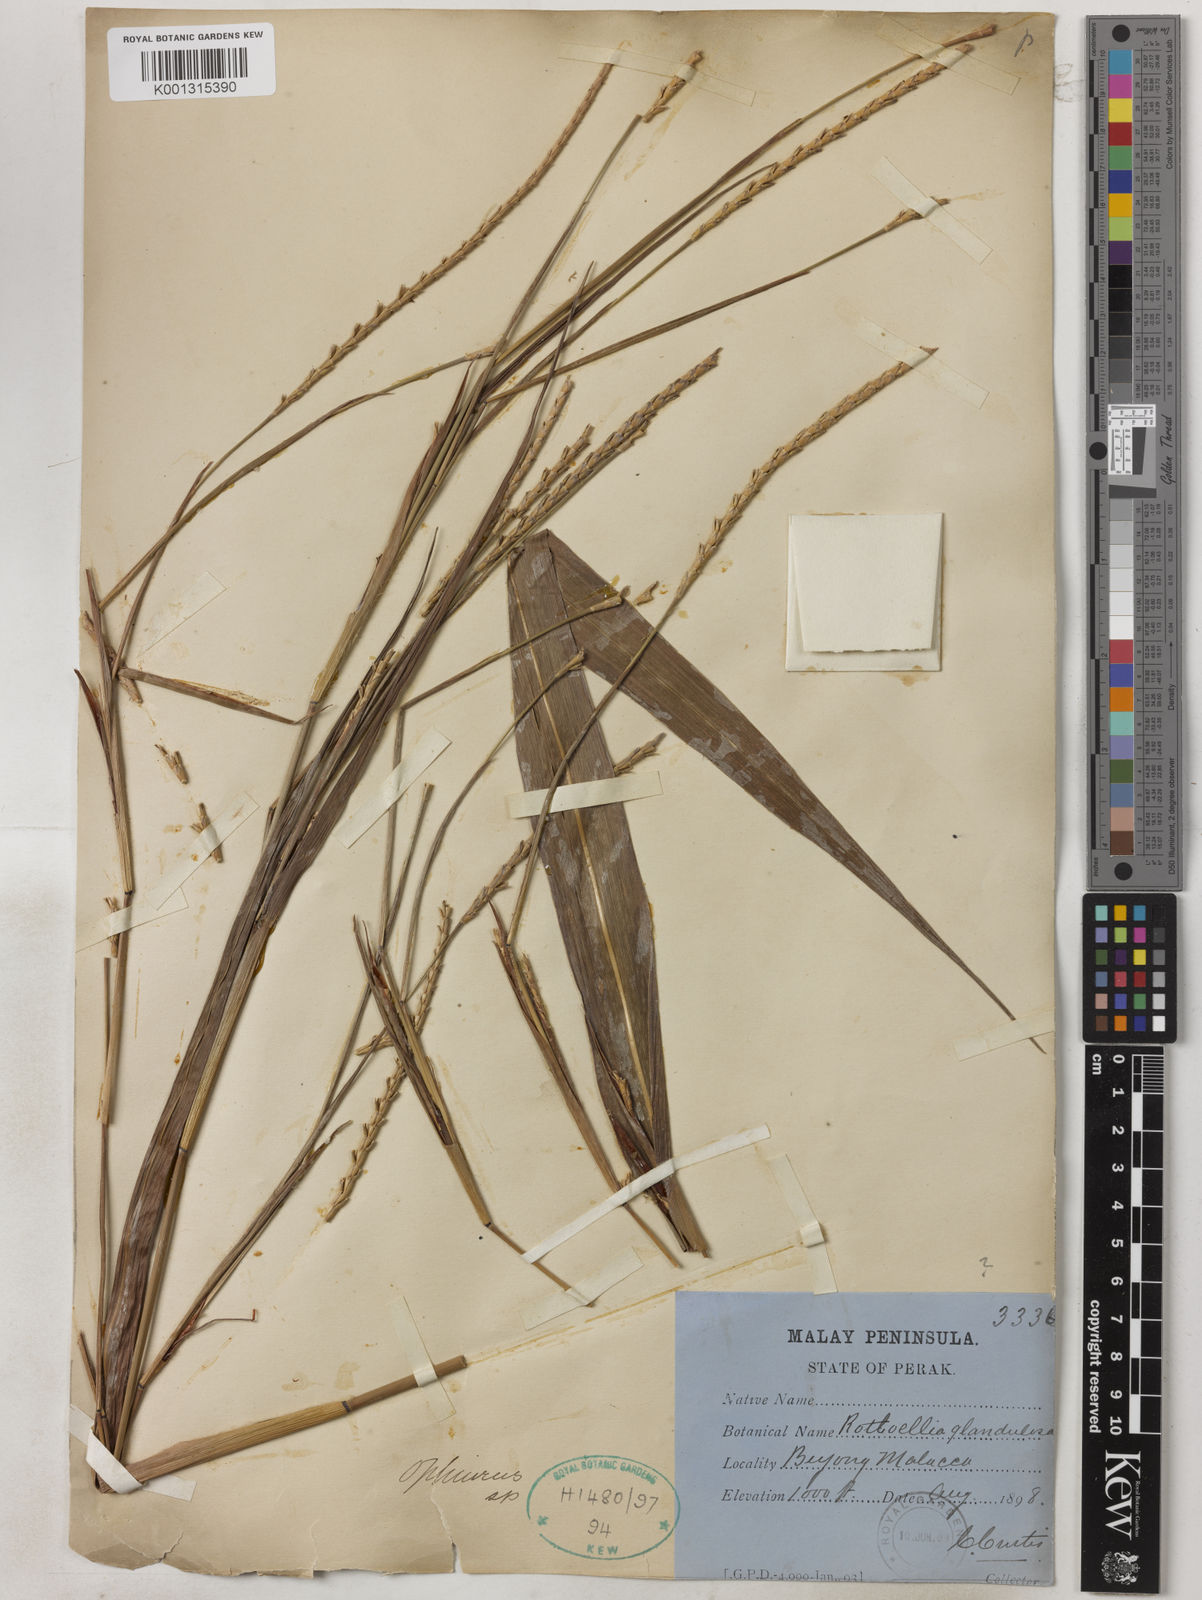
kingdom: Plantae
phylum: Tracheophyta
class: Liliopsida
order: Poales
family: Poaceae
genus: Rottboellia
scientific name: Rottboellia glandulosa
